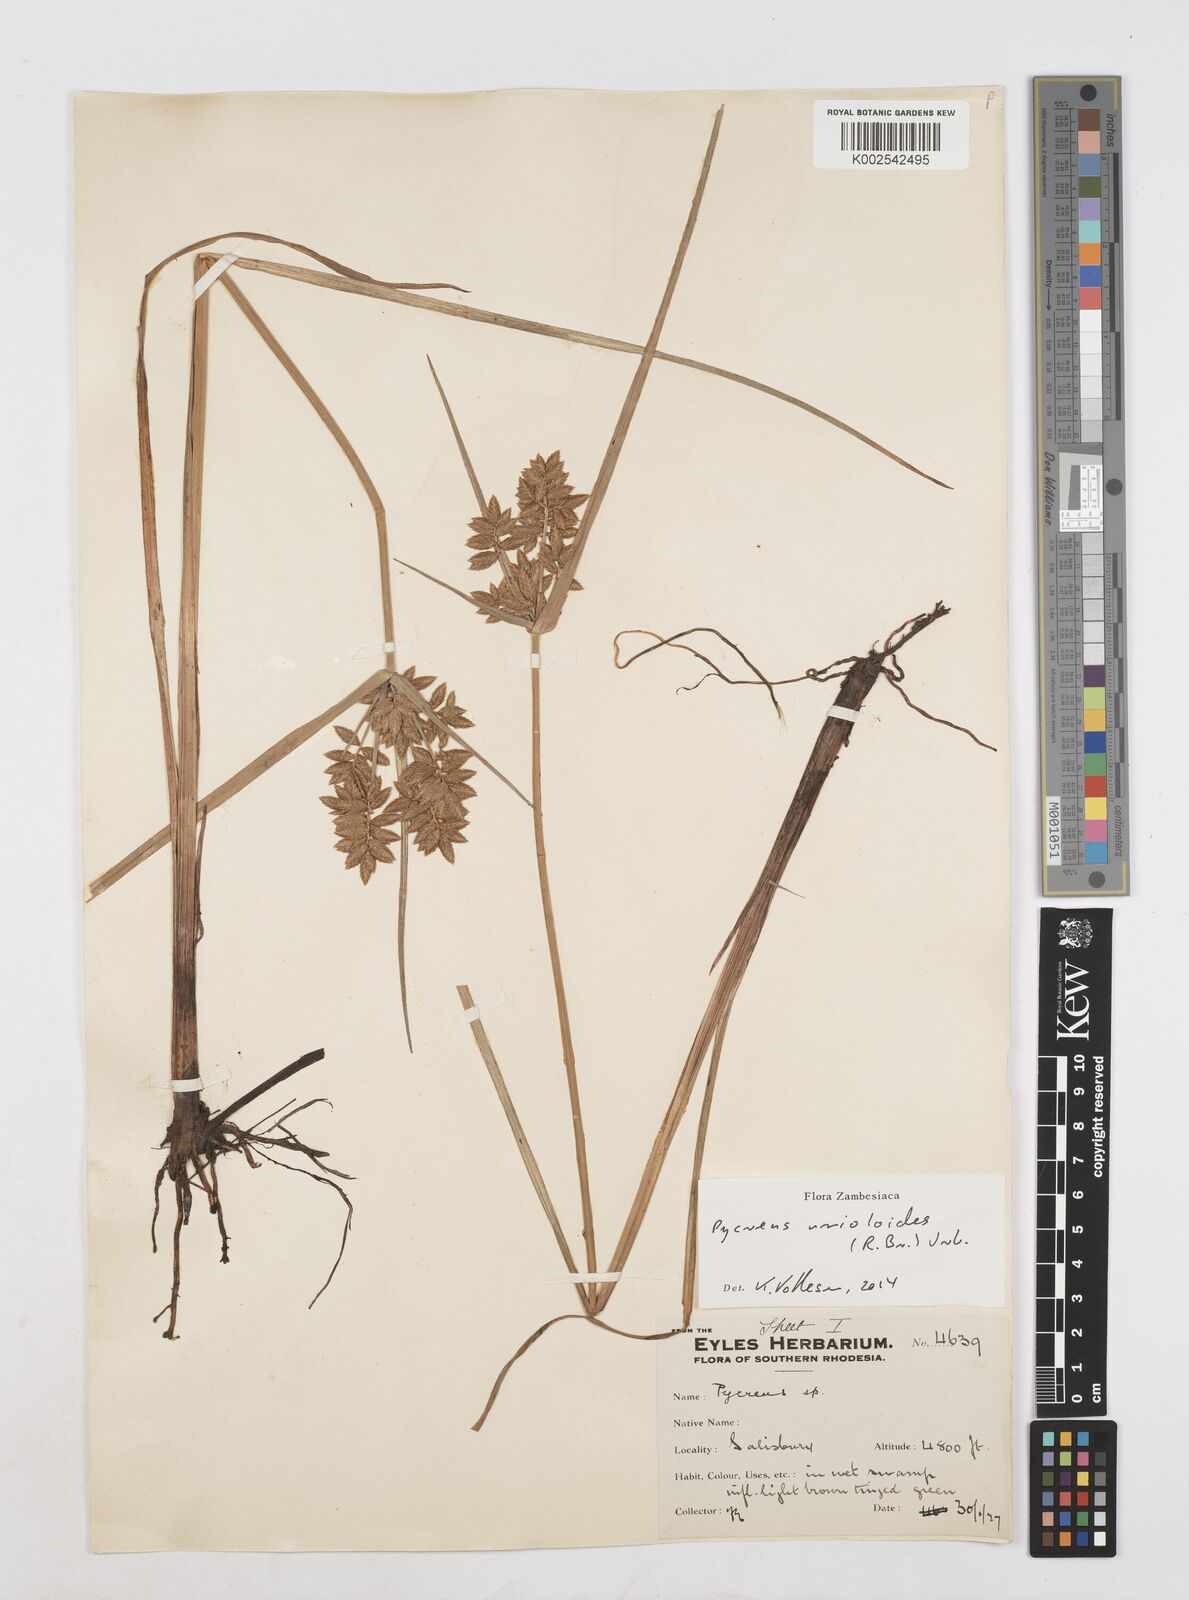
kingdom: Plantae
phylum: Tracheophyta
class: Liliopsida
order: Poales
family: Cyperaceae
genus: Cyperus
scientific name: Cyperus unioloides
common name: Uniola flatsedge
